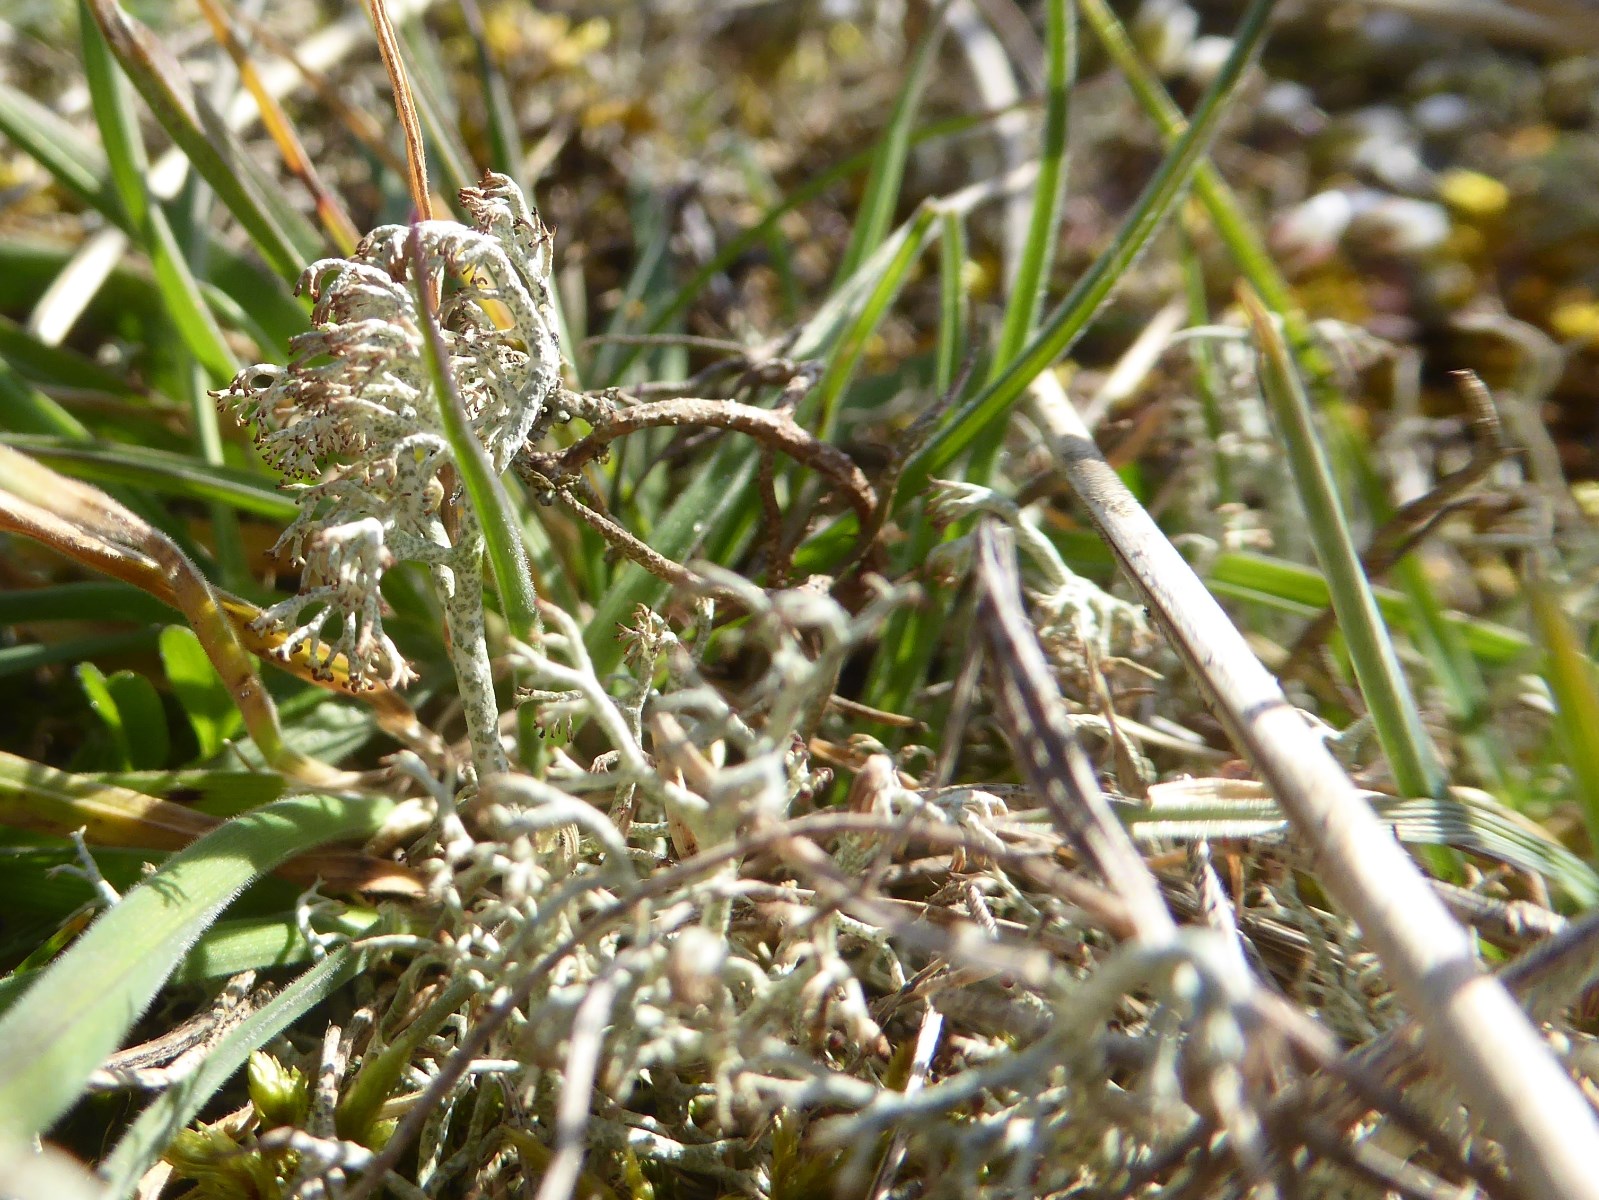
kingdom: Fungi
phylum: Ascomycota
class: Lecanoromycetes
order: Lecanorales
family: Cladoniaceae
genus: Cladonia
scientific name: Cladonia ciliata
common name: spinkel rensdyrlav
